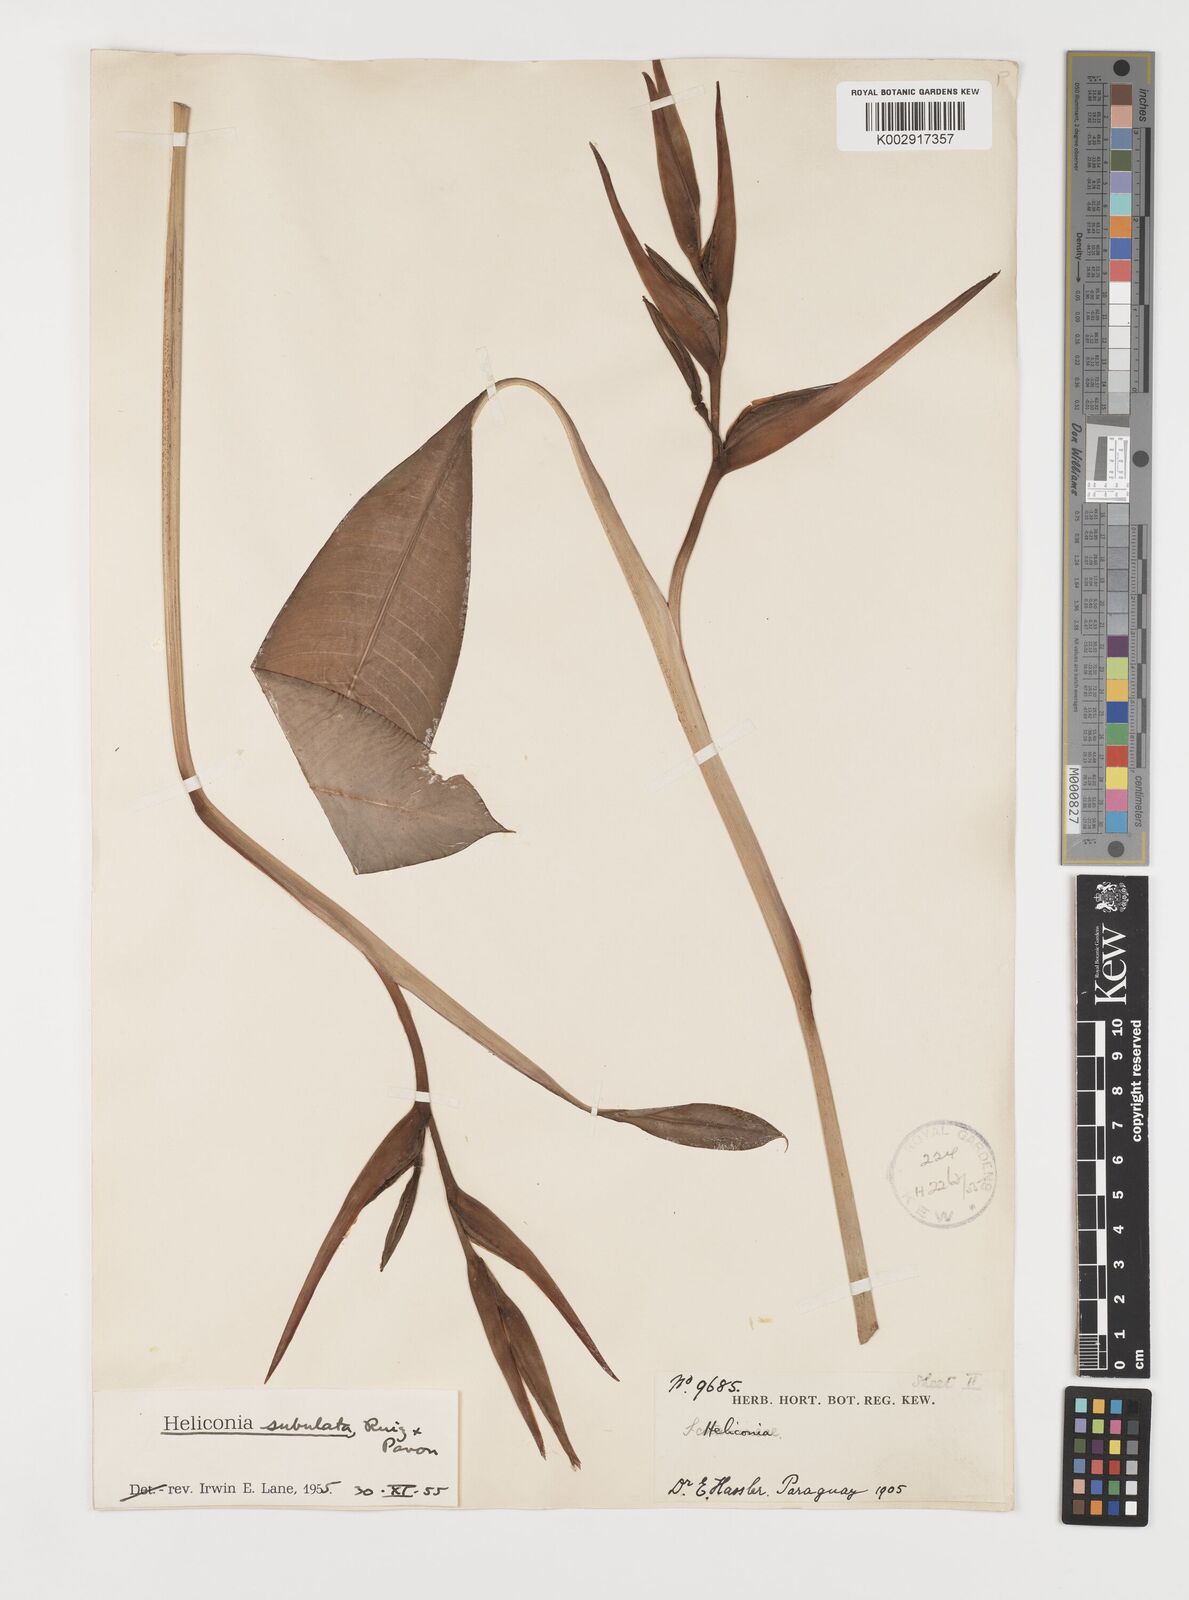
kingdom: Plantae
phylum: Tracheophyta
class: Liliopsida
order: Zingiberales
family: Heliconiaceae
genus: Heliconia
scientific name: Heliconia subulata
